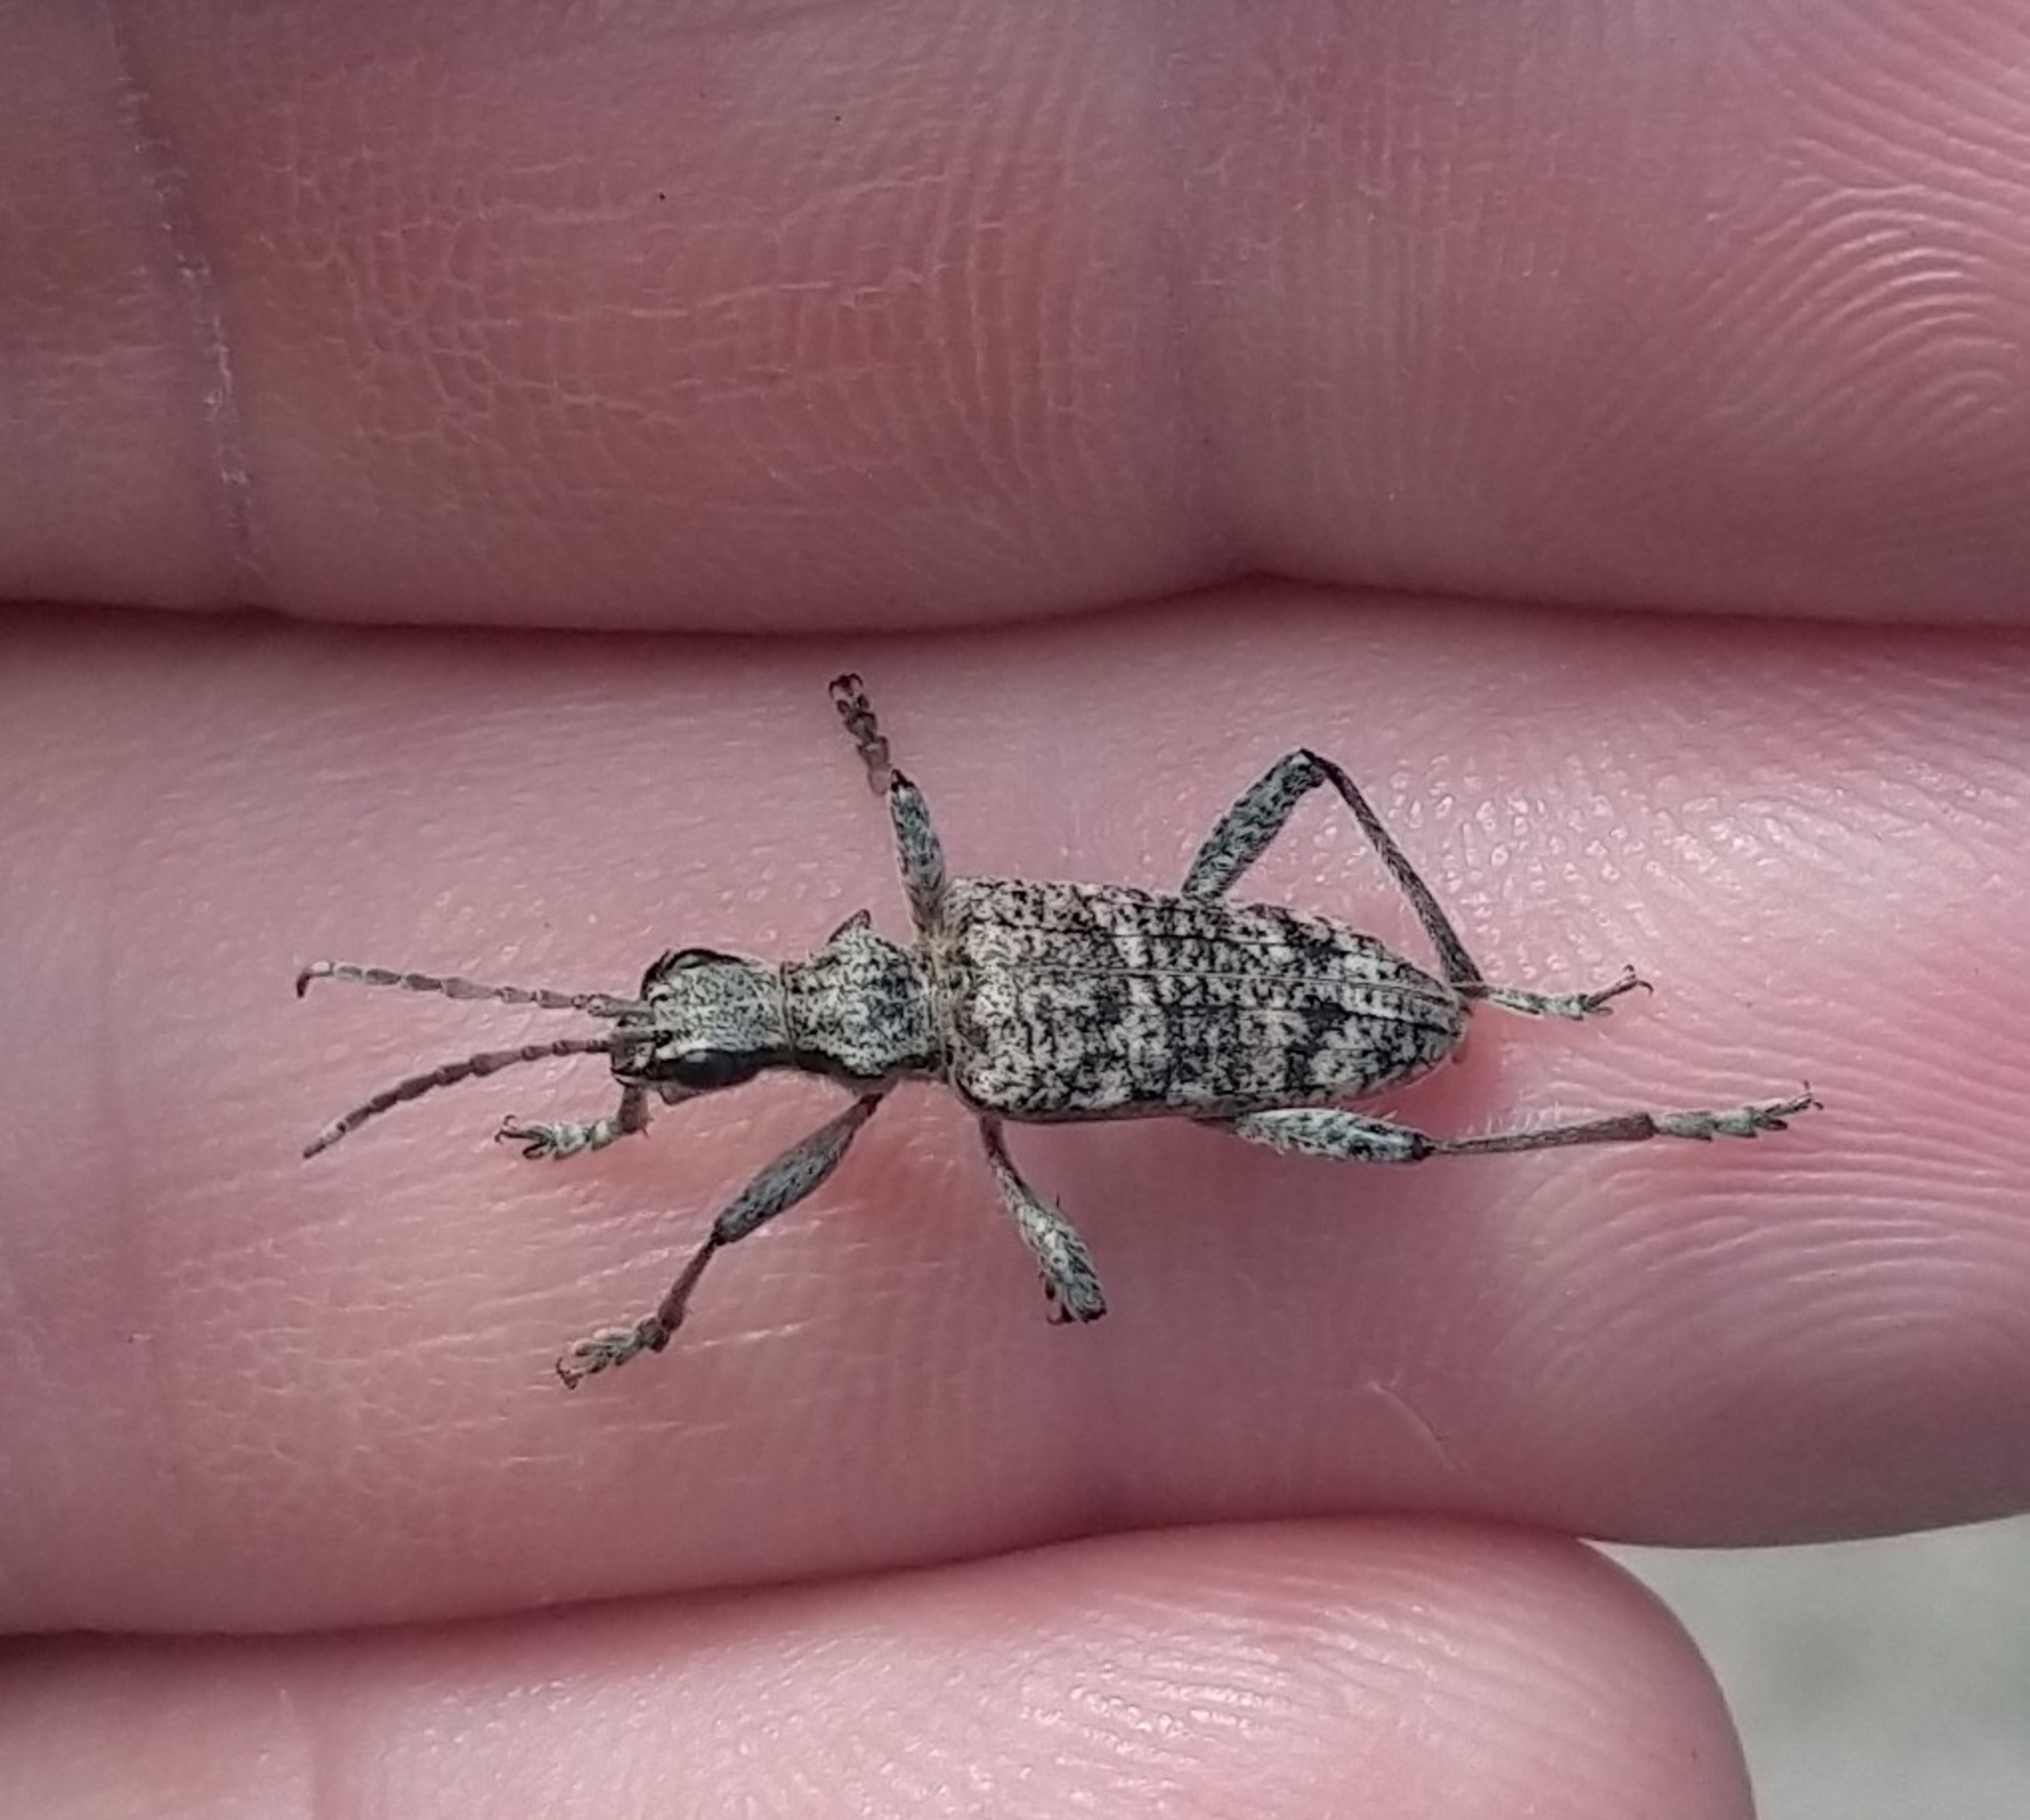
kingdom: Animalia
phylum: Arthropoda
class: Insecta
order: Coleoptera
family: Cerambycidae
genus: Rhagium
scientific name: Rhagium inquisitor
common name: Fyrretandbuk
